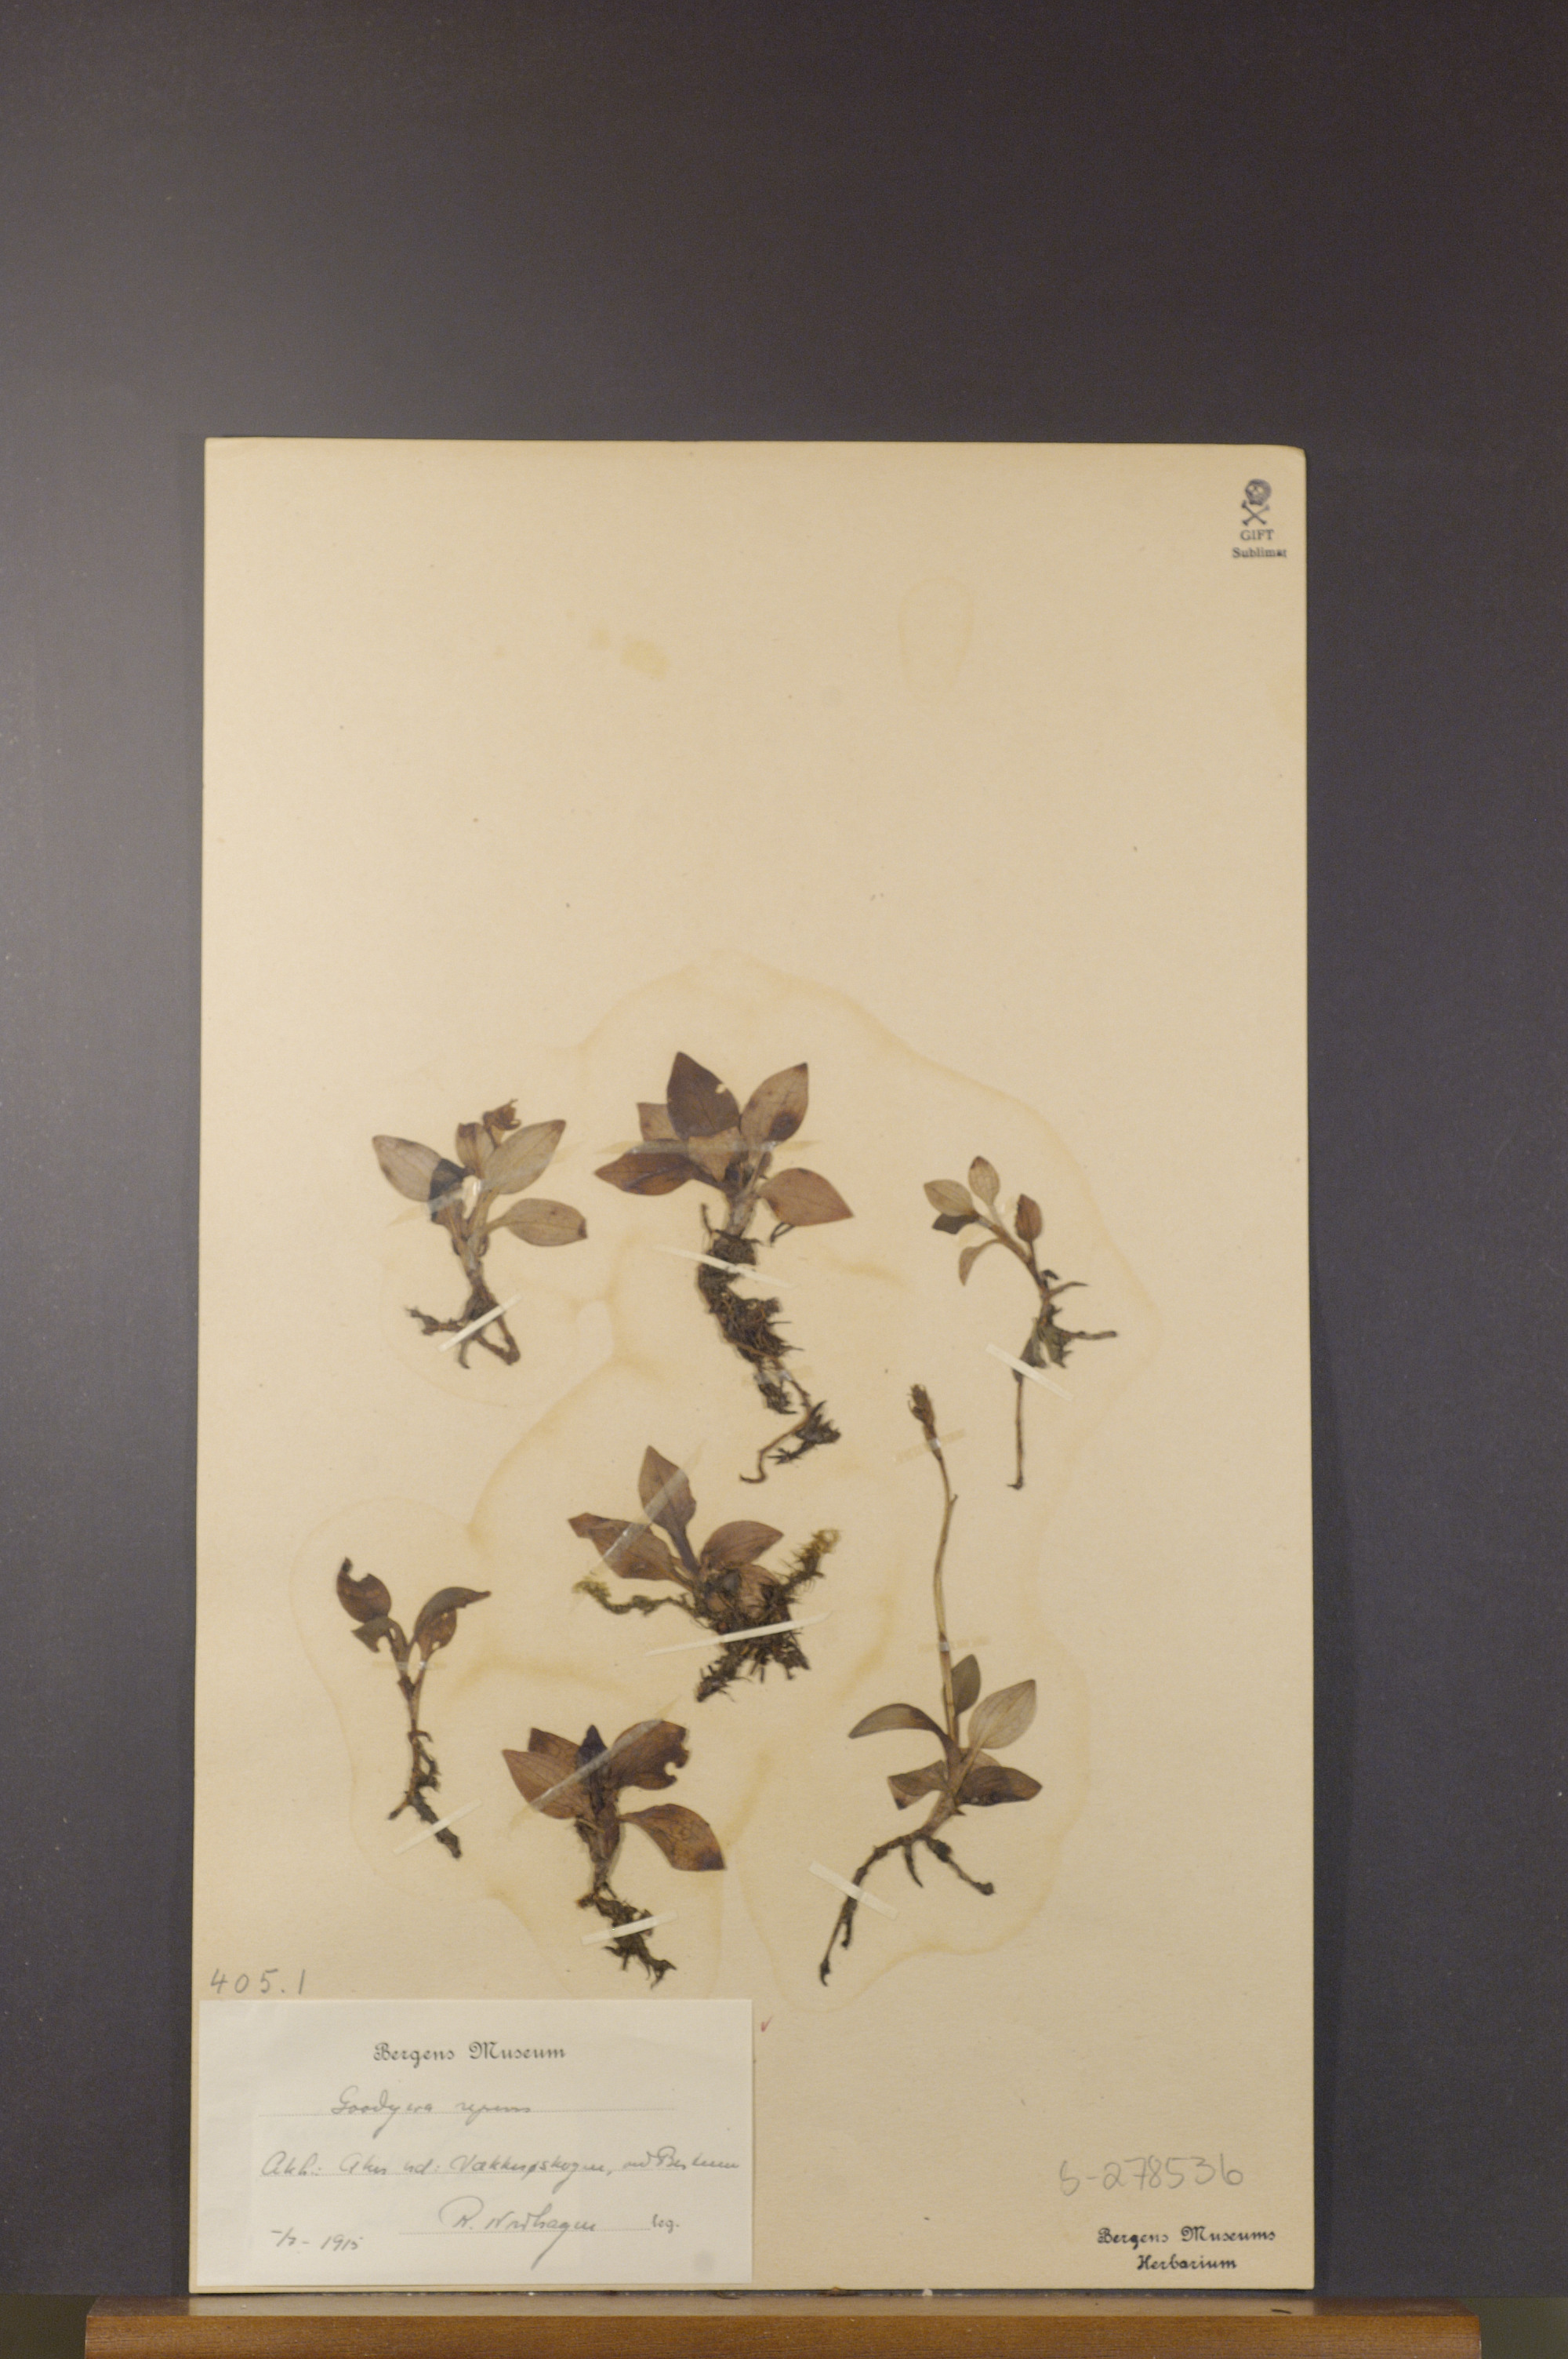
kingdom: Plantae
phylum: Tracheophyta
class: Liliopsida
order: Asparagales
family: Orchidaceae
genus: Goodyera
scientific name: Goodyera repens
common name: Creeping lady's-tresses
